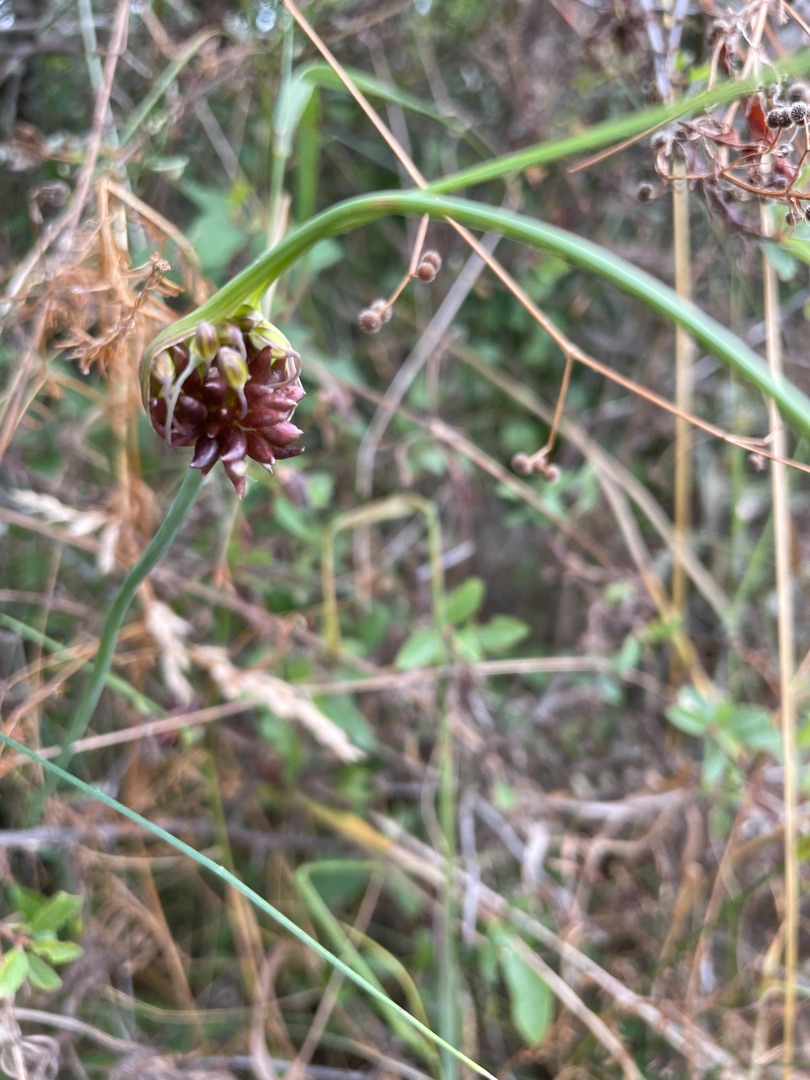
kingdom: Plantae
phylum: Tracheophyta
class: Liliopsida
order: Asparagales
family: Amaryllidaceae
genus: Allium
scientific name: Allium oleraceum
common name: Vild løg
